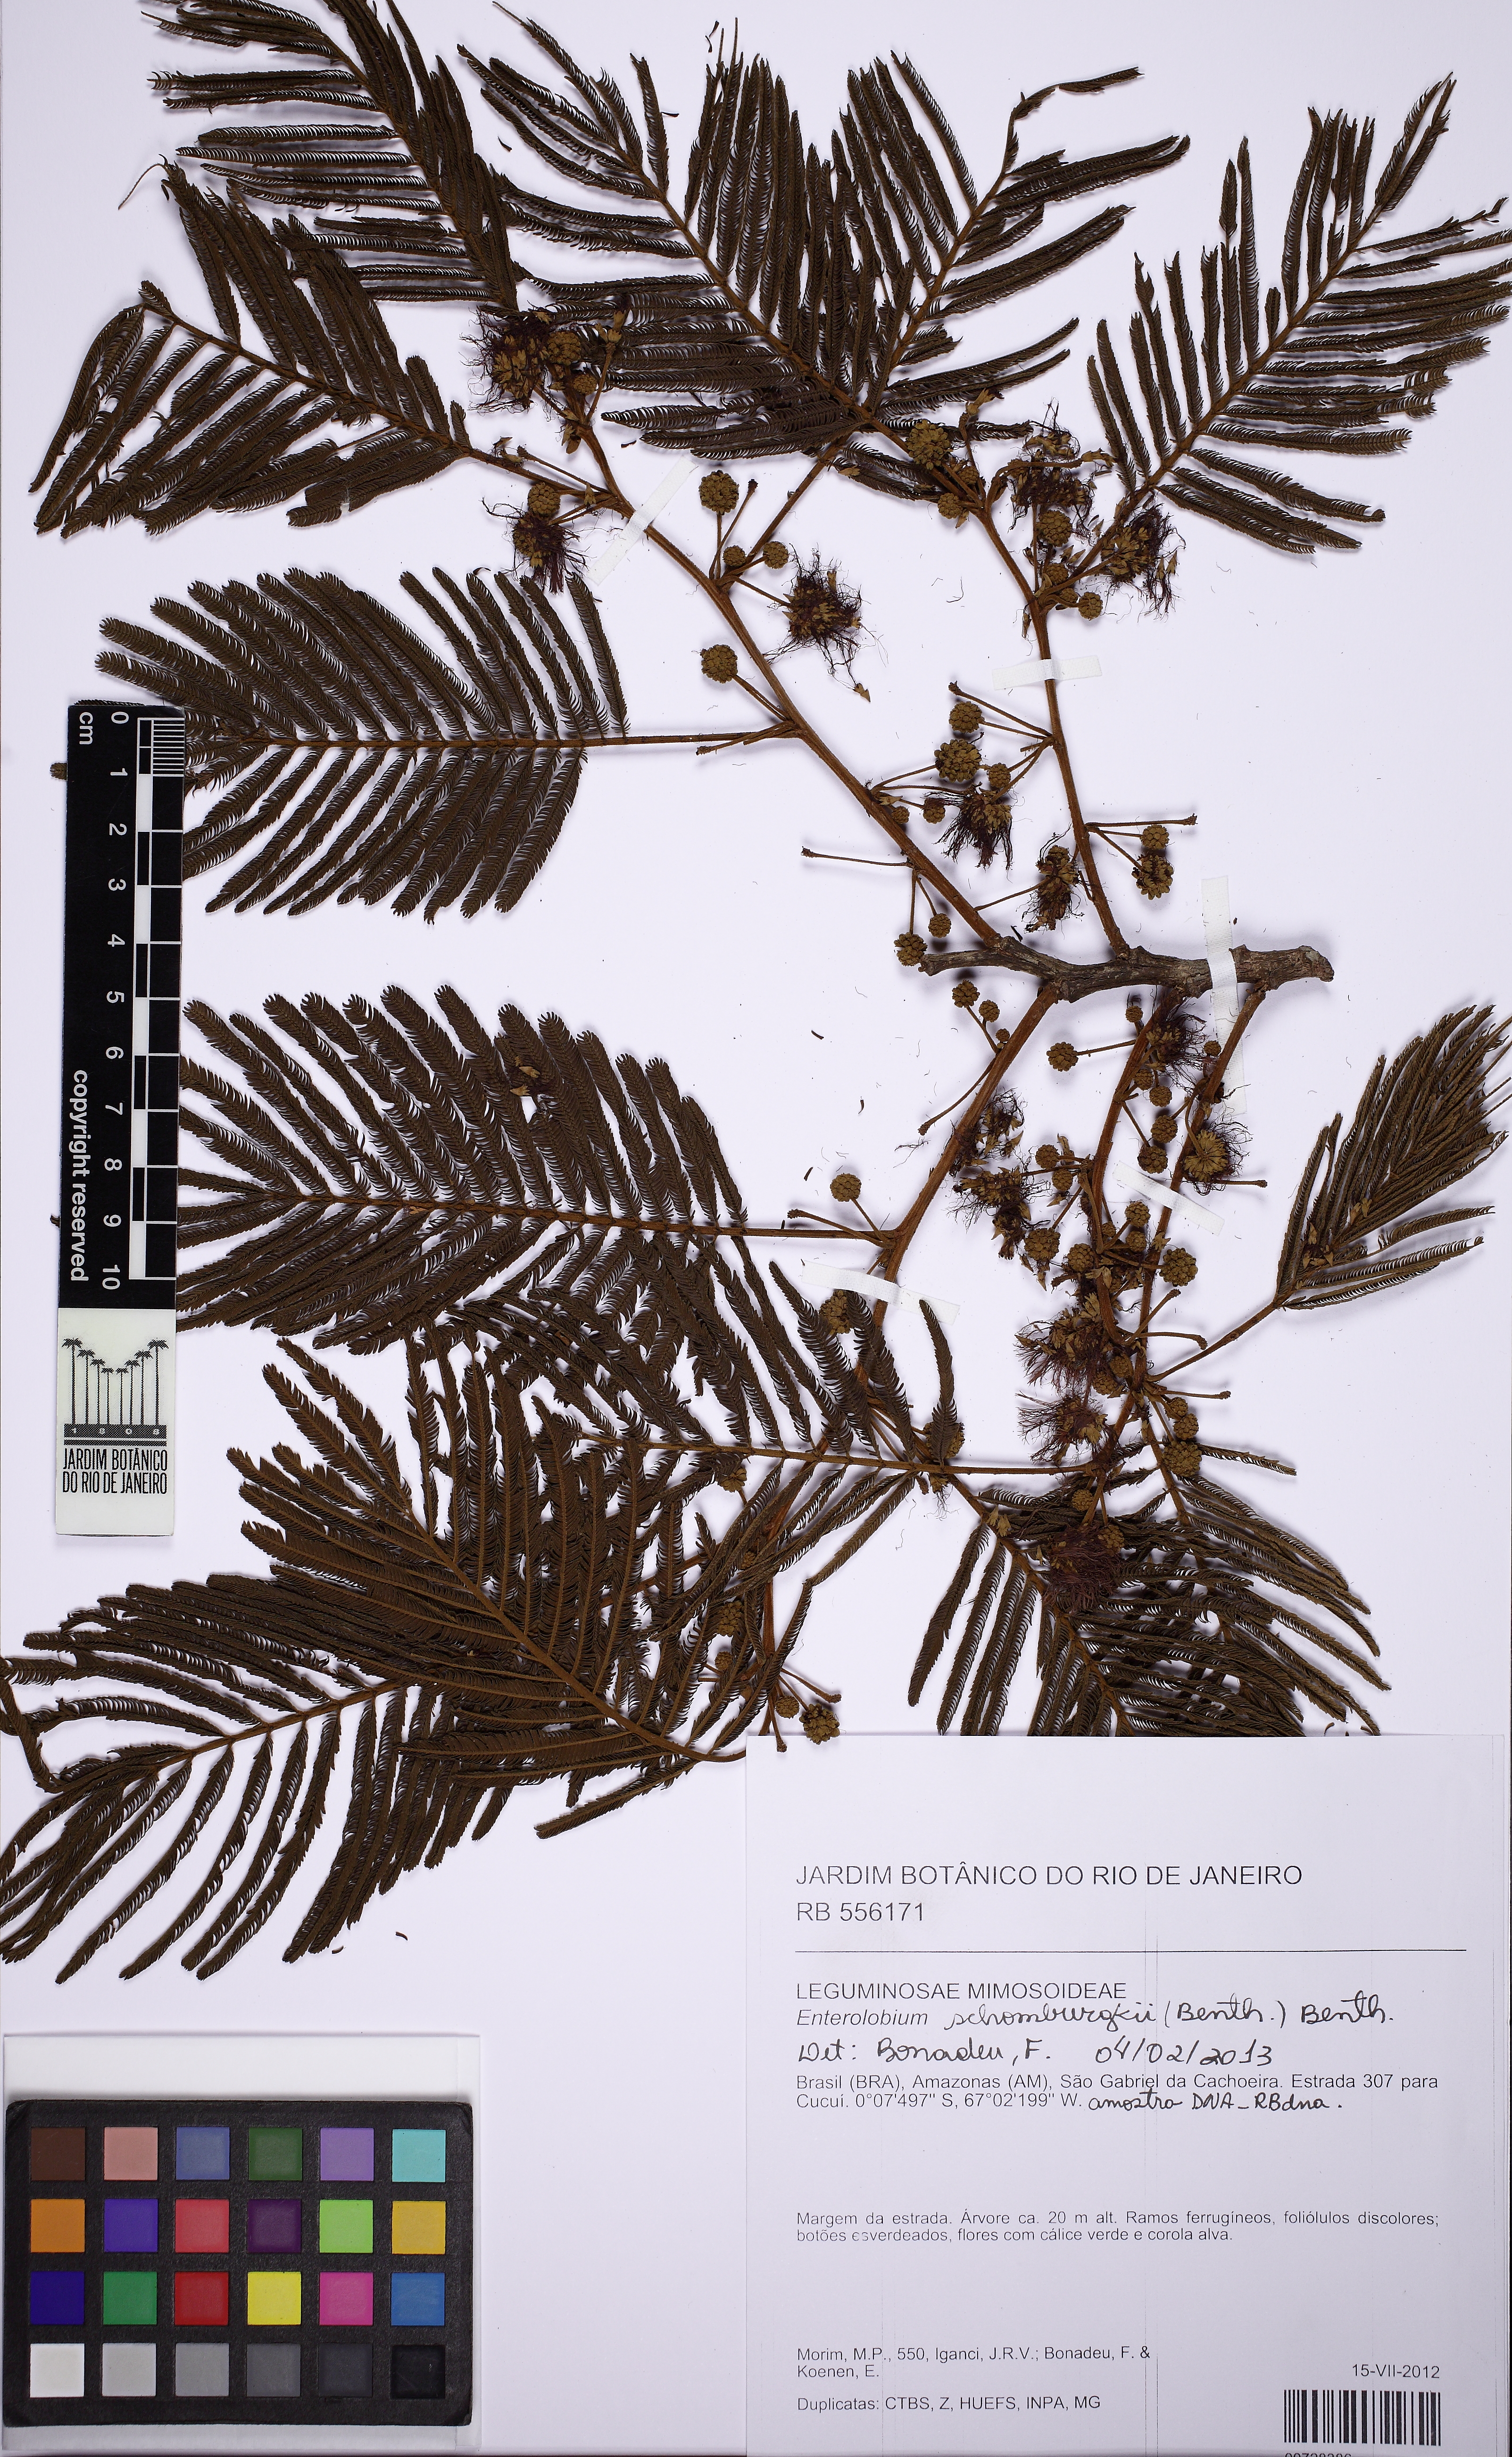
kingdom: Plantae
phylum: Tracheophyta
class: Magnoliopsida
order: Fabales
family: Fabaceae
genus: Enterolobium
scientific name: Enterolobium schomburgkii
